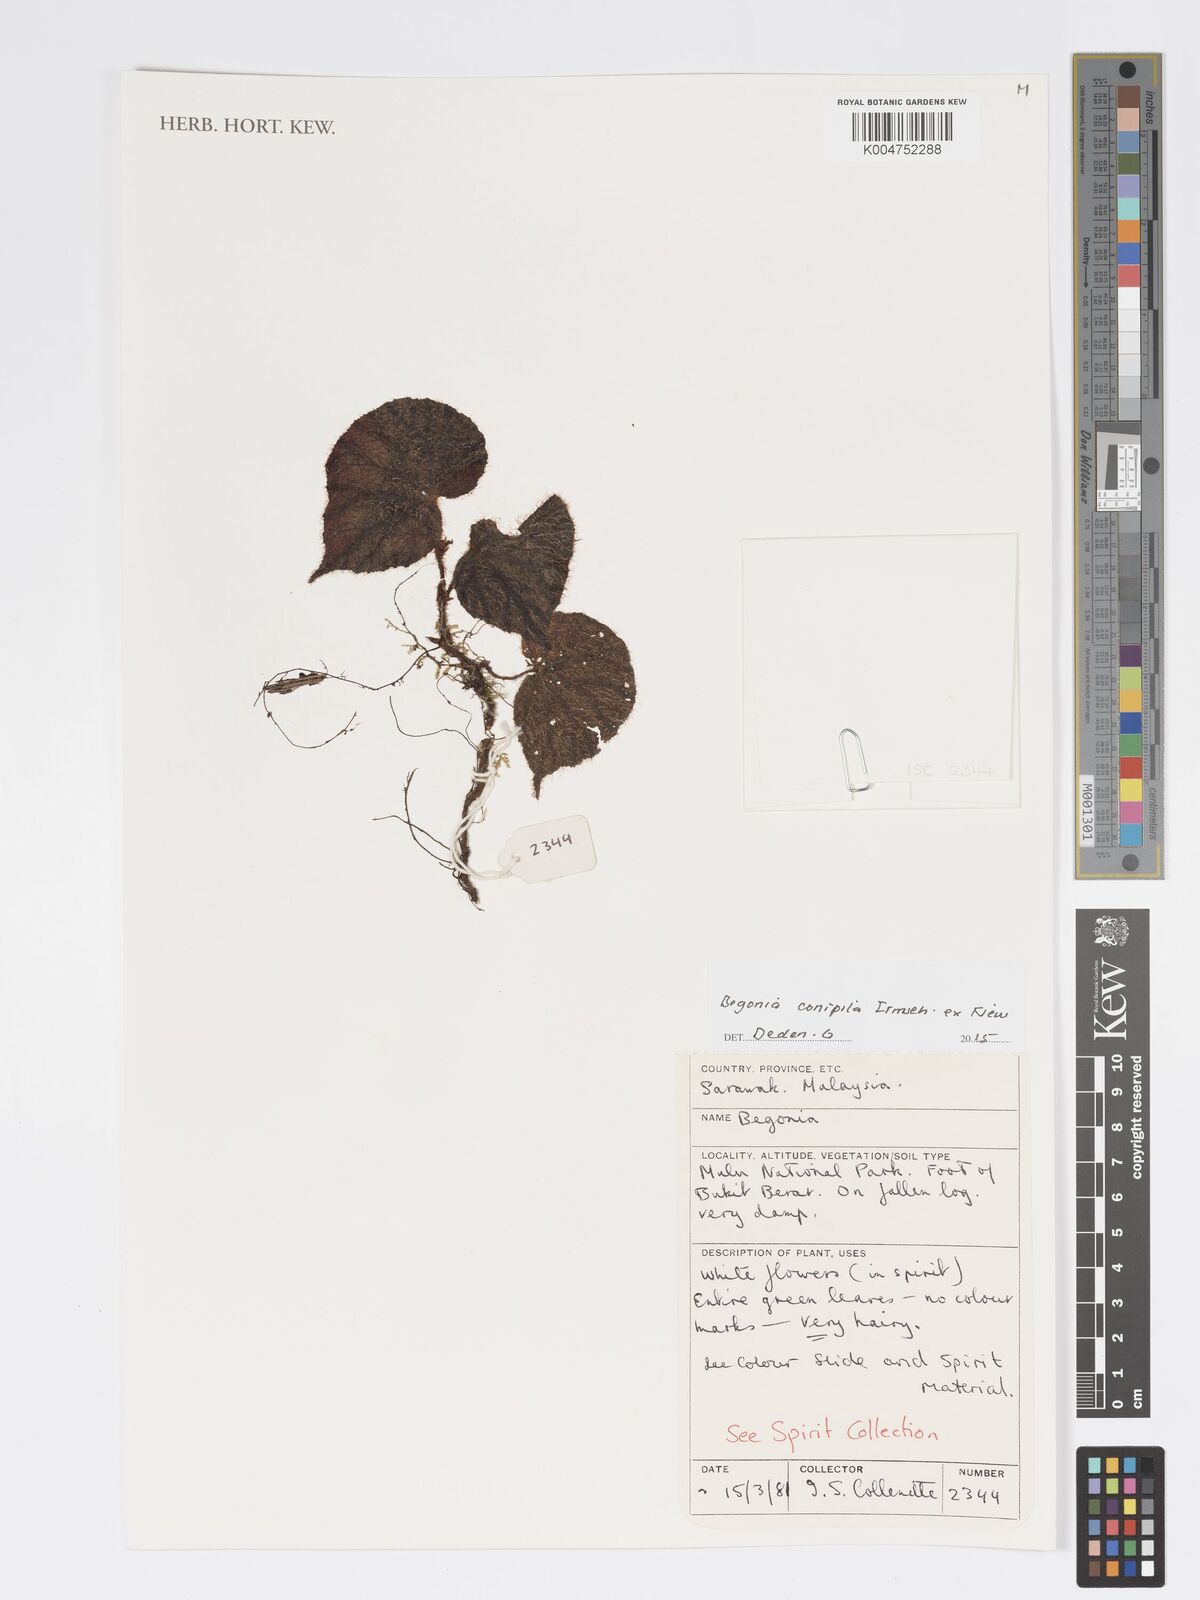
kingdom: Plantae
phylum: Tracheophyta
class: Magnoliopsida
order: Cucurbitales
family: Begoniaceae
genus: Begonia
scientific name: Begonia conipila
